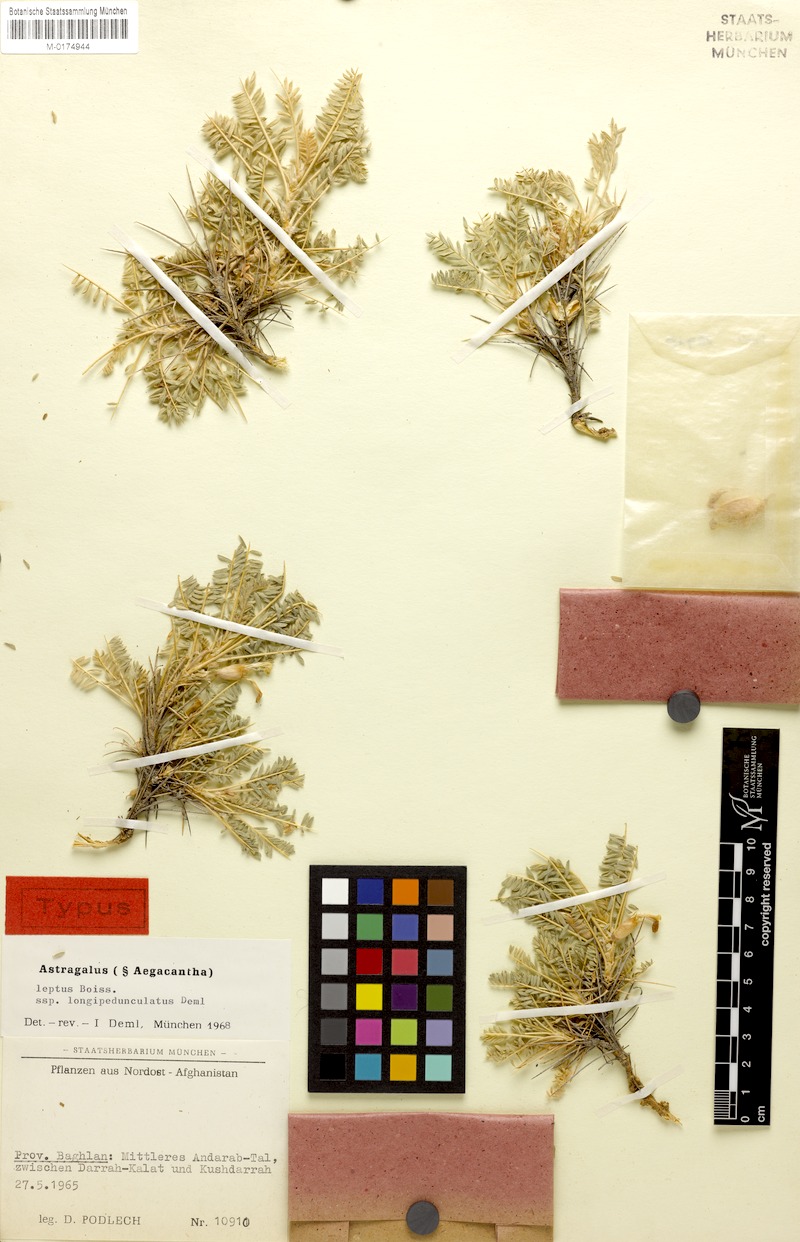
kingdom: Plantae
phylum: Tracheophyta
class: Magnoliopsida
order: Fabales
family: Fabaceae
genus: Astragalus
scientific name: Astragalus leptus
